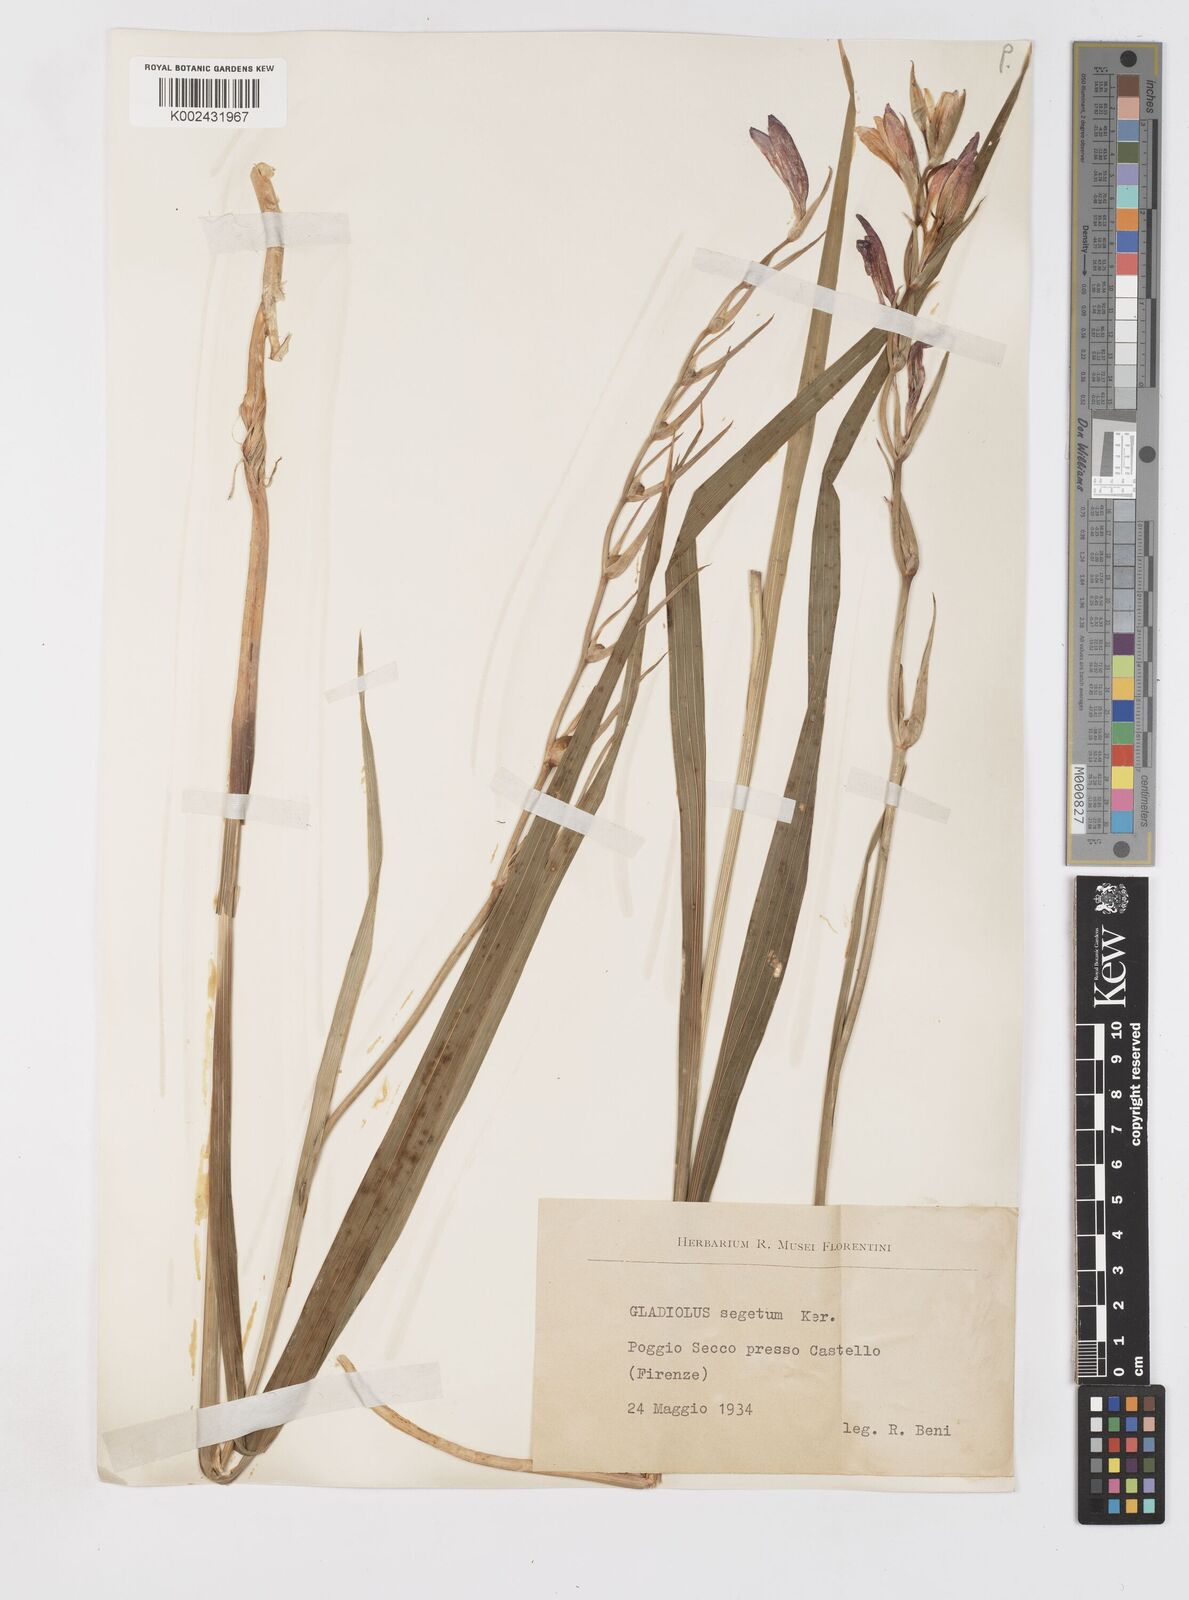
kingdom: Plantae
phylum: Tracheophyta
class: Liliopsida
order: Asparagales
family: Iridaceae
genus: Gladiolus
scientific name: Gladiolus
